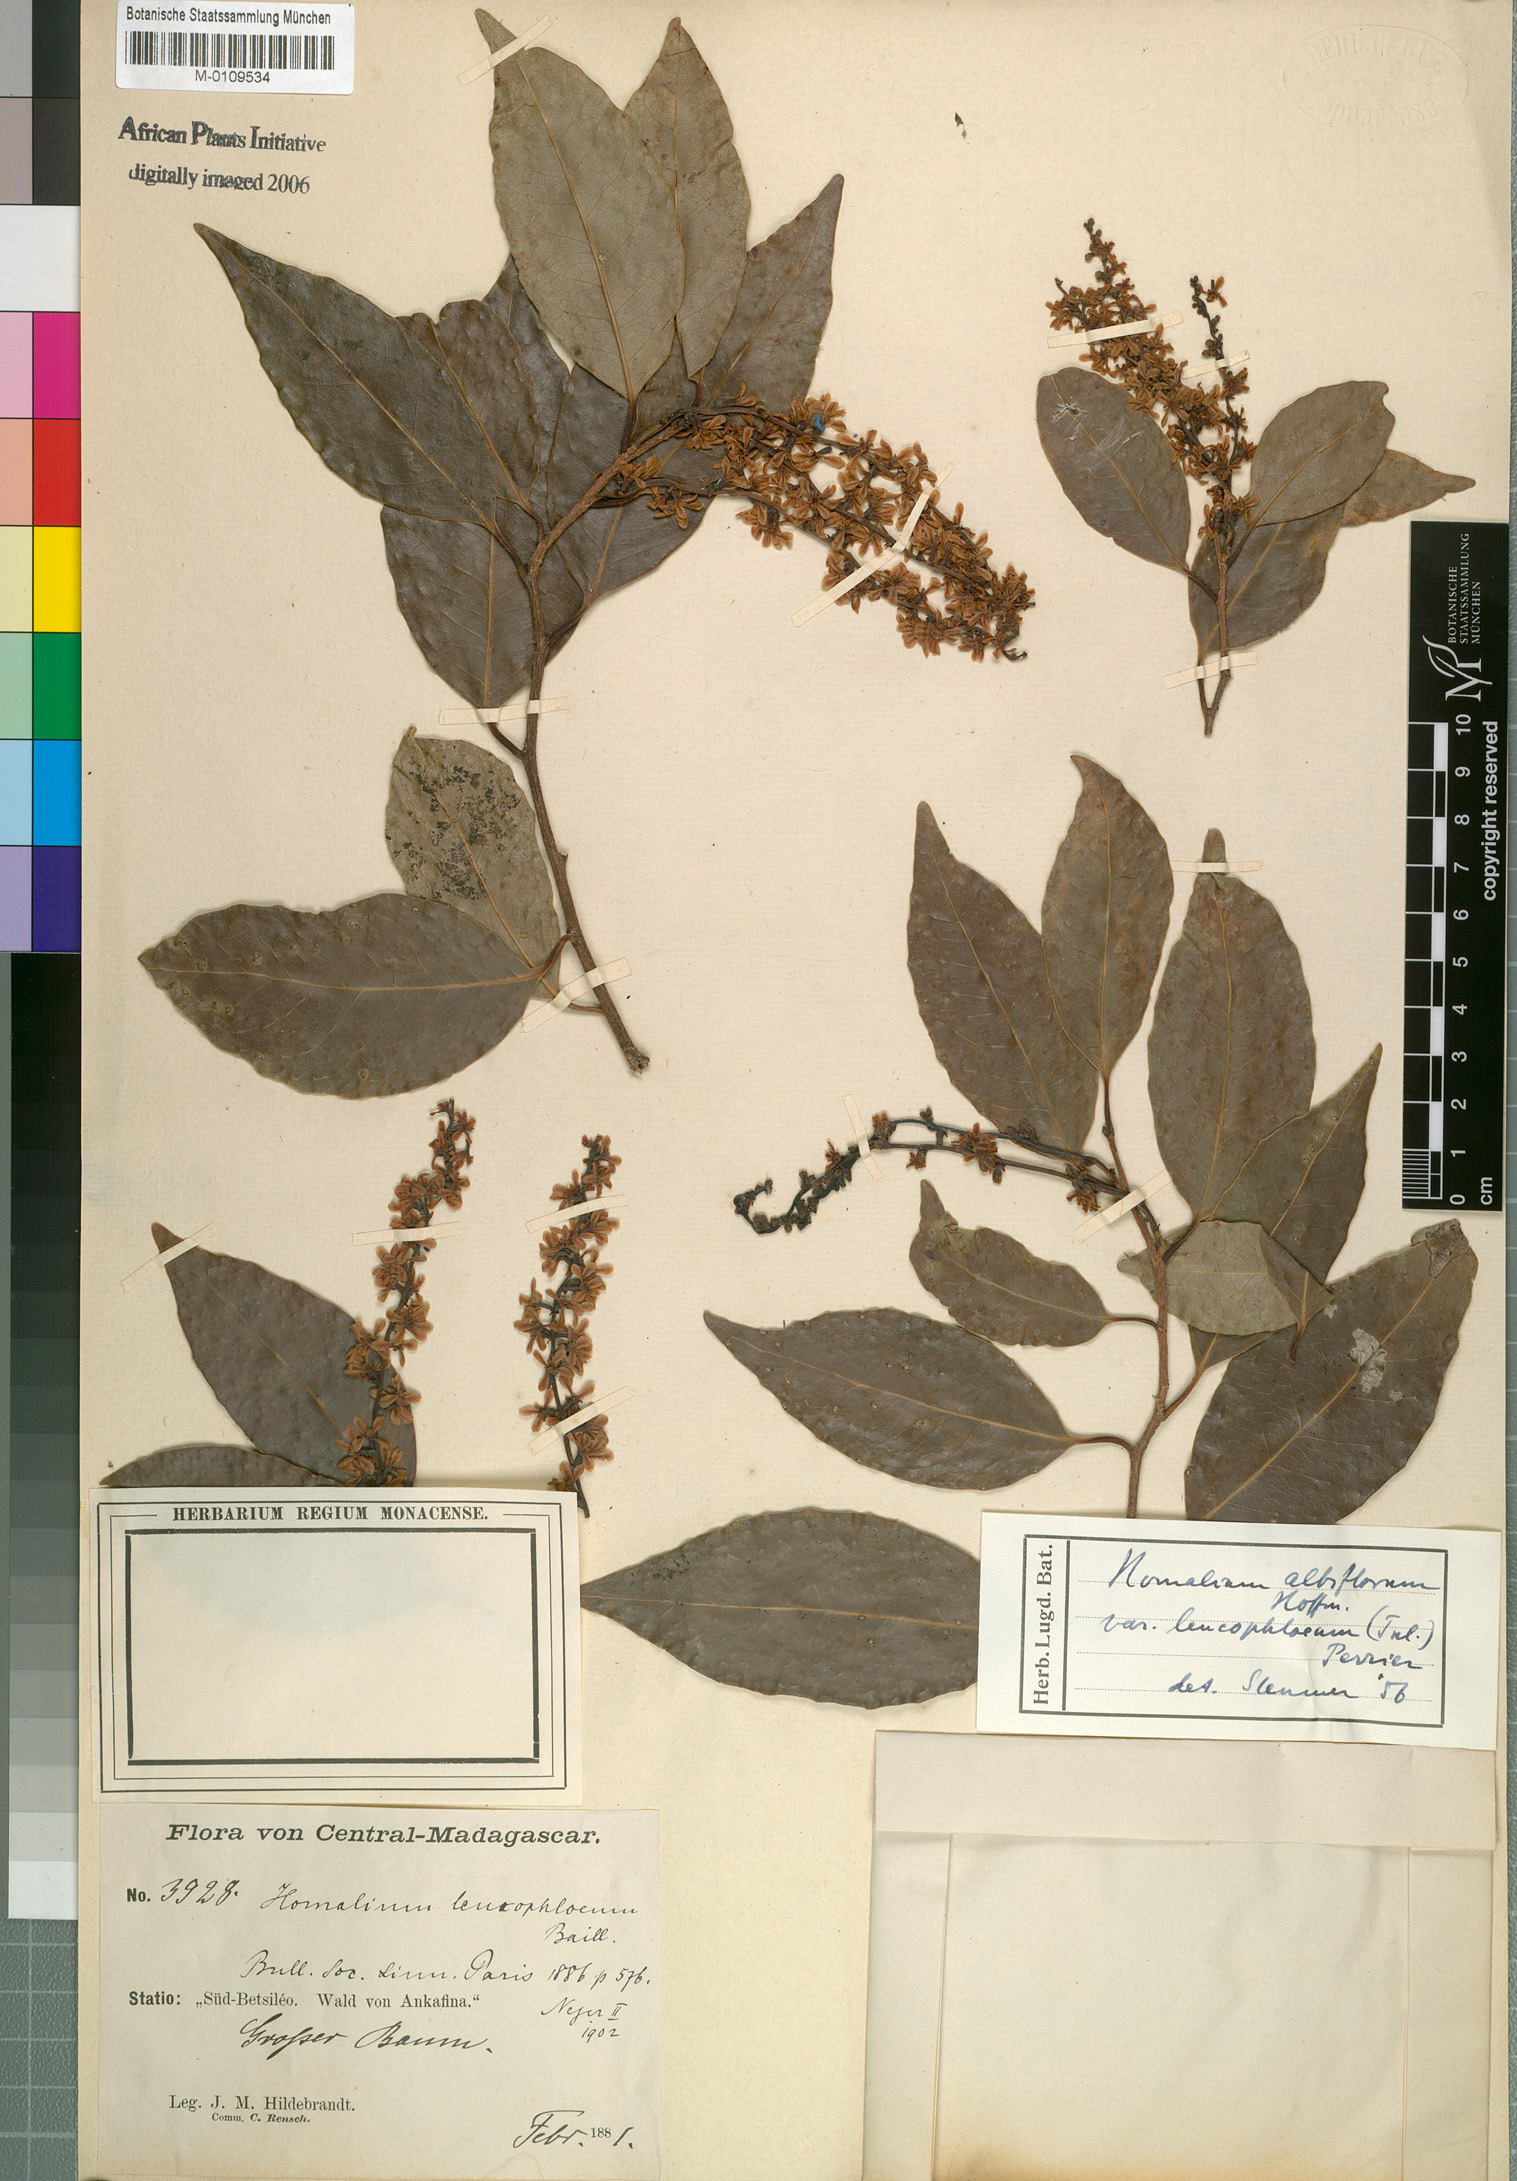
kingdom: Plantae
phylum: Tracheophyta
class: Magnoliopsida
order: Malpighiales
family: Salicaceae
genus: Homalium
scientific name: Homalium leucophloeum
